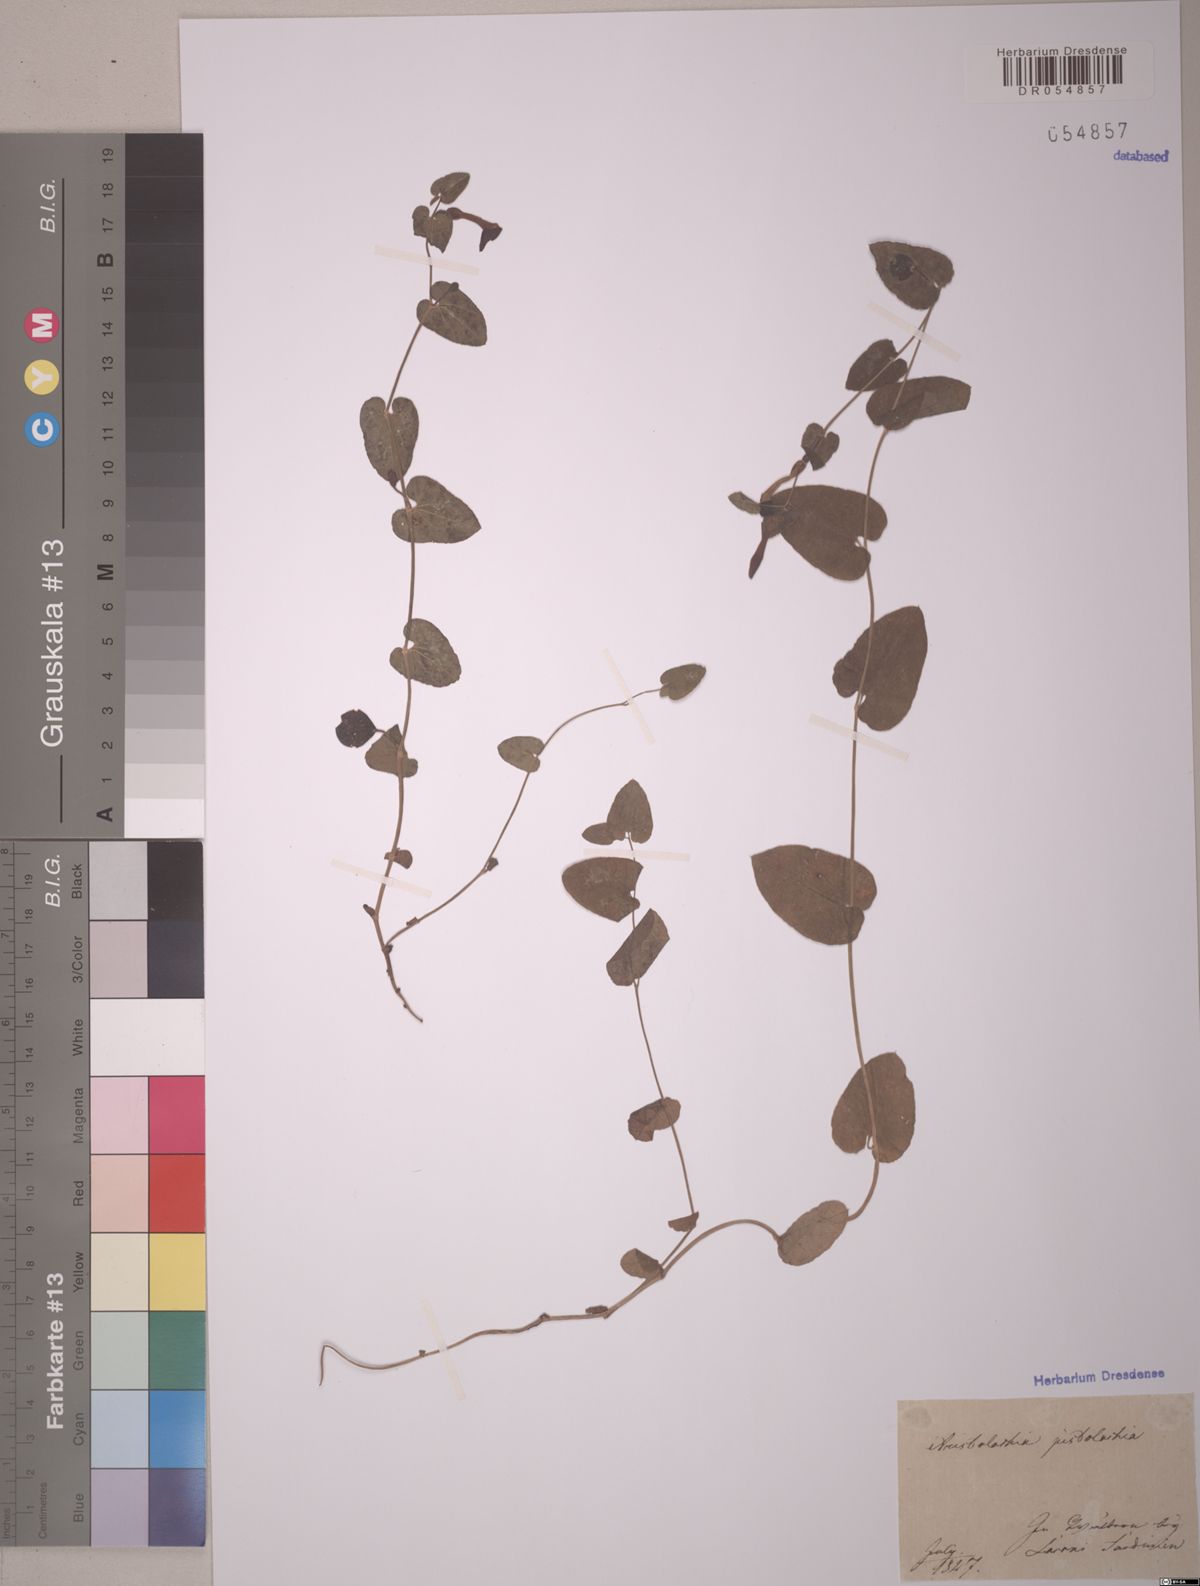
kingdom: Plantae
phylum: Tracheophyta
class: Magnoliopsida
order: Piperales
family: Aristolochiaceae
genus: Aristolochia
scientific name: Aristolochia pistolochia
